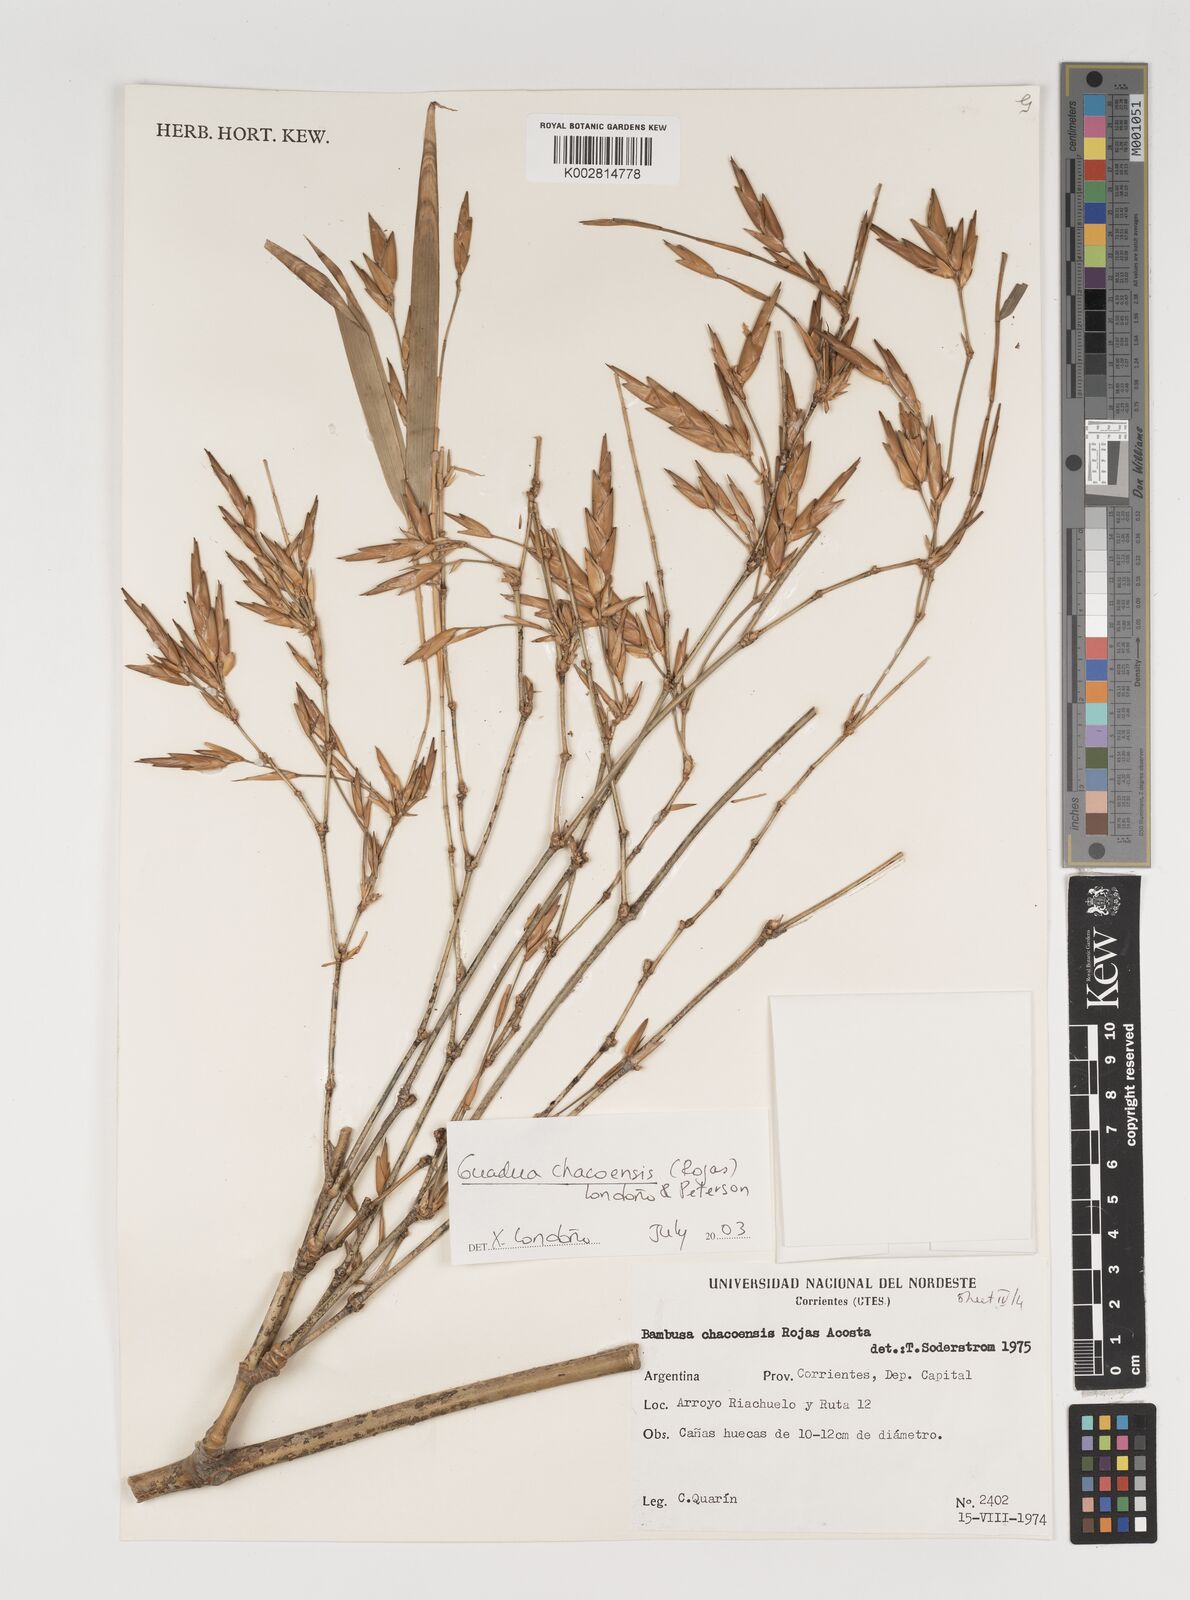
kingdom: Plantae
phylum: Tracheophyta
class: Liliopsida
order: Poales
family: Poaceae
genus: Guadua
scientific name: Guadua chacoensis
